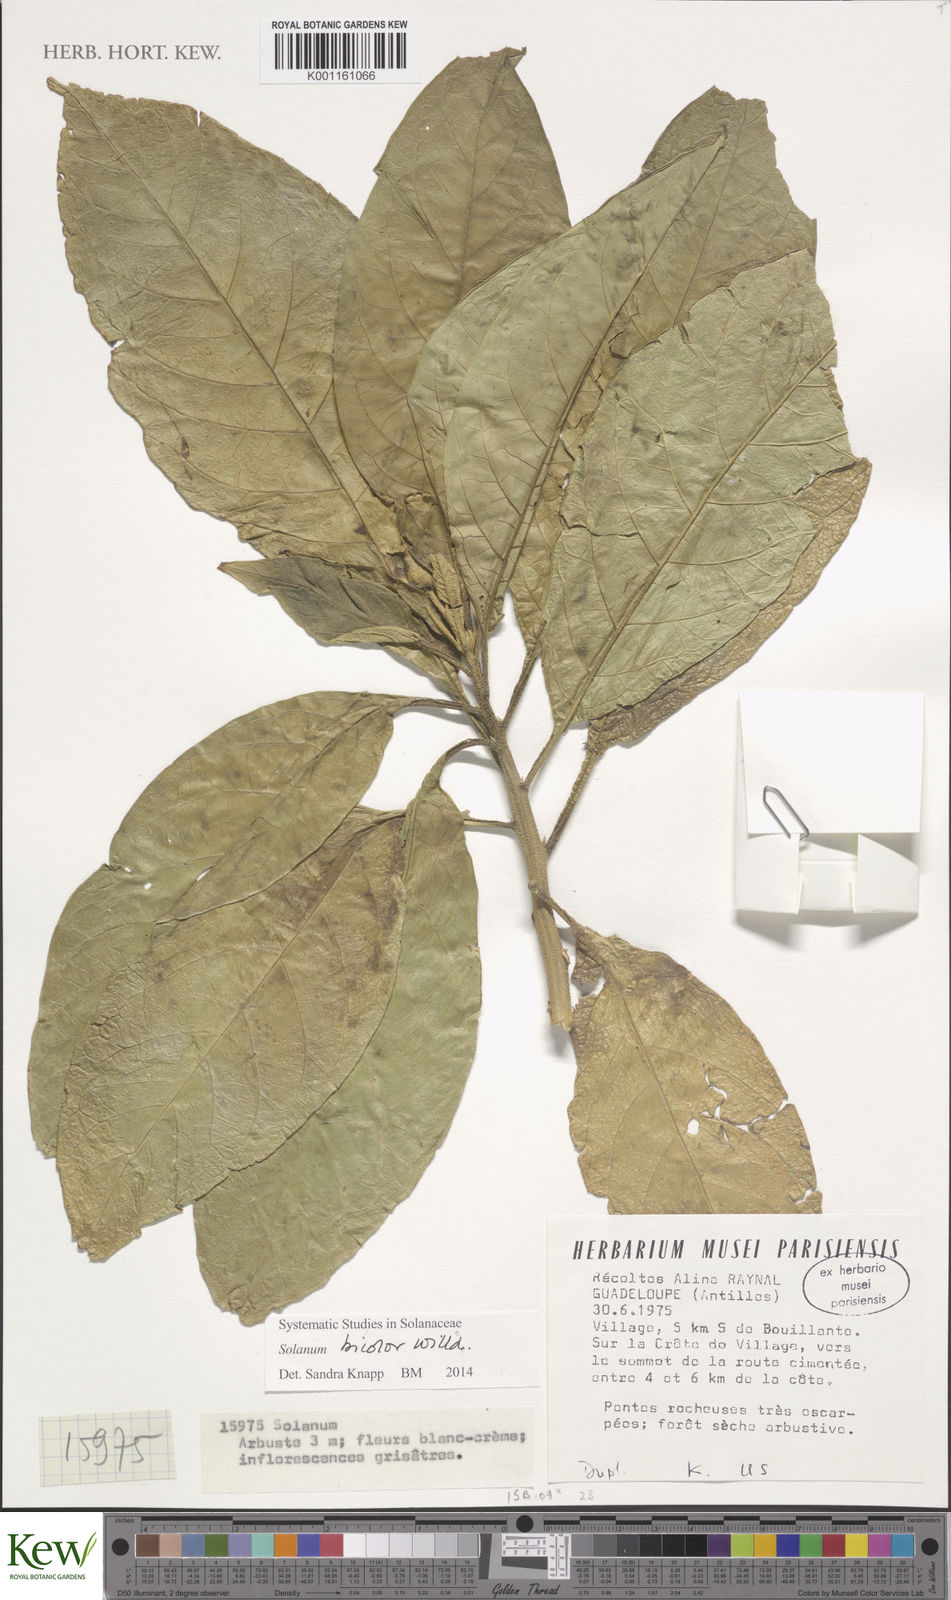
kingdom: Plantae
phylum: Tracheophyta
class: Magnoliopsida
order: Solanales
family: Solanaceae
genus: Solanum
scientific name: Solanum bicolor
